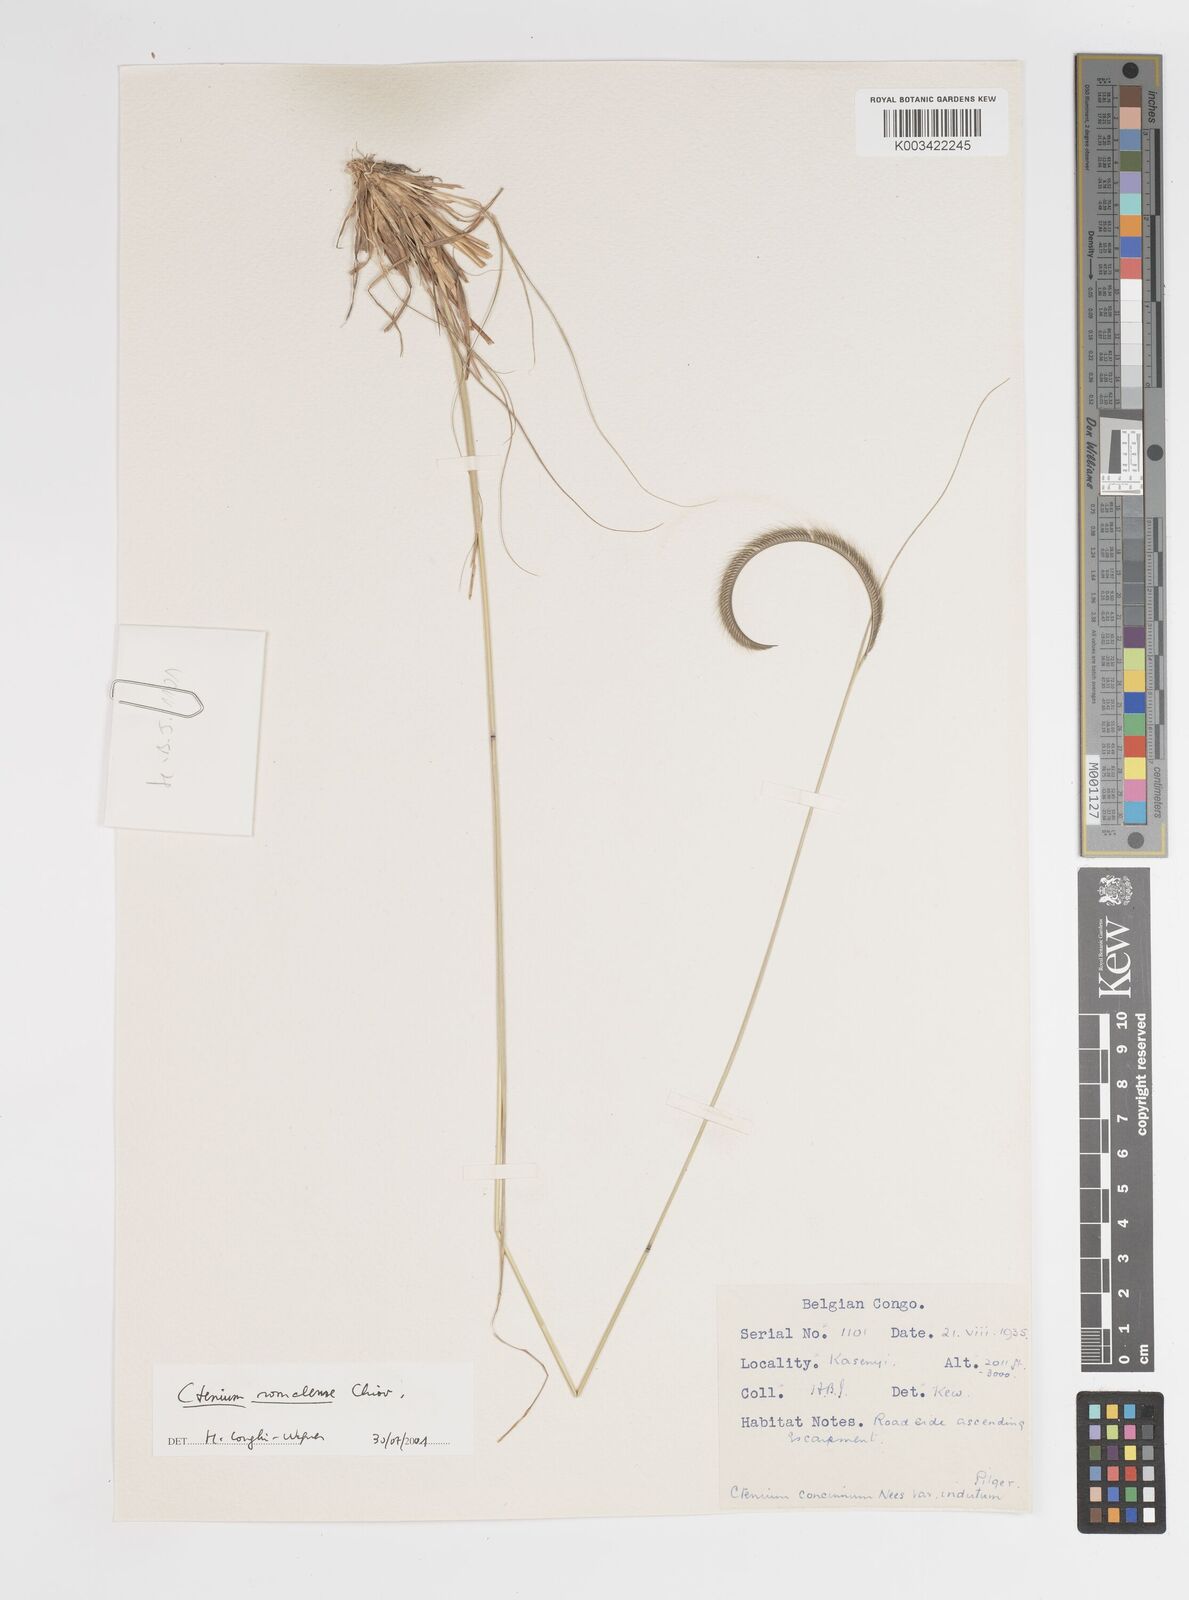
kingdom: Plantae
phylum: Tracheophyta
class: Liliopsida
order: Poales
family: Poaceae
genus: Ctenium
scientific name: Ctenium concinnum
